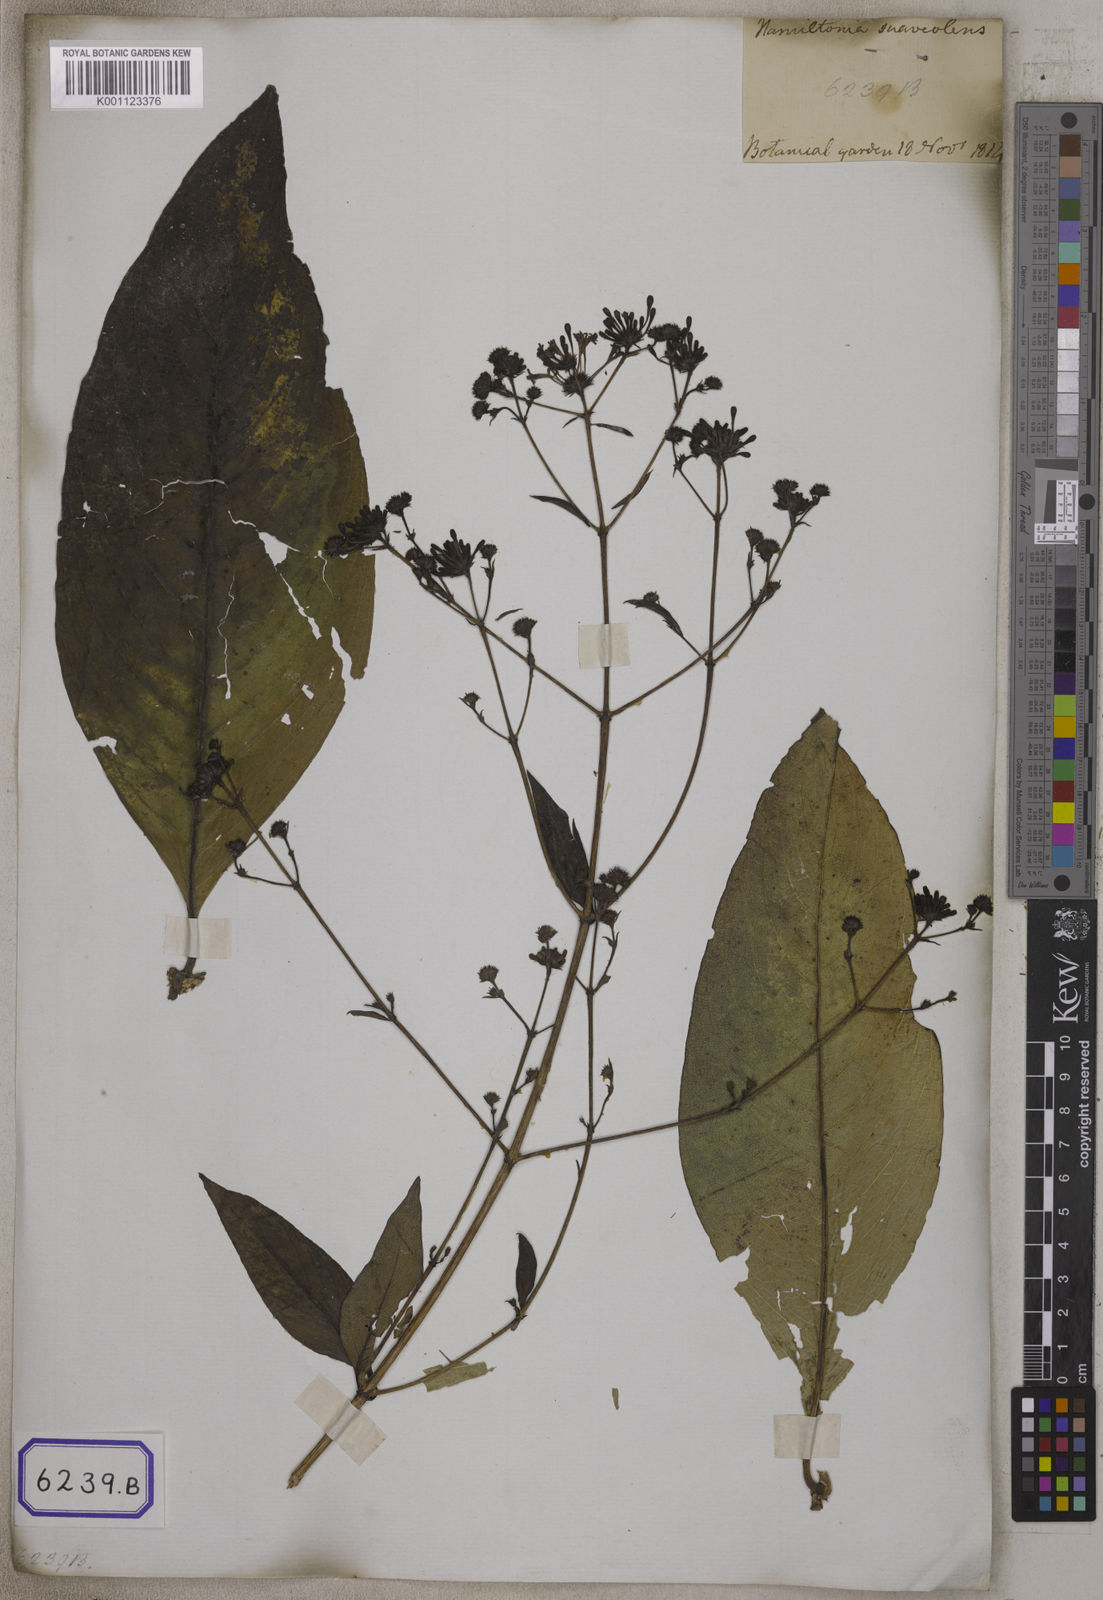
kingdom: Plantae
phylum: Tracheophyta
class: Magnoliopsida
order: Gentianales
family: Rubiaceae
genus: Spermadictyon
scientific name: Spermadictyon suaveolens
